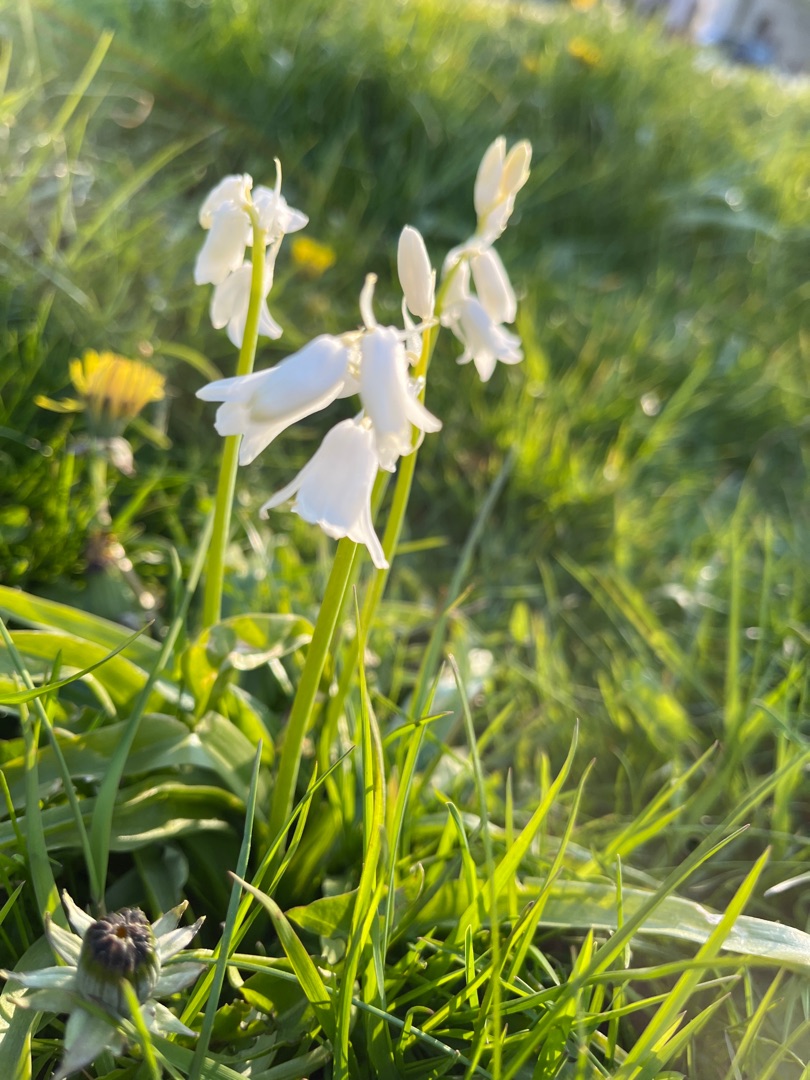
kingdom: Plantae
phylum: Tracheophyta
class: Liliopsida
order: Asparagales
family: Asparagaceae
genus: Hyacinthoides
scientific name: Hyacinthoides massartiana
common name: Hybrid-klokkeskilla
